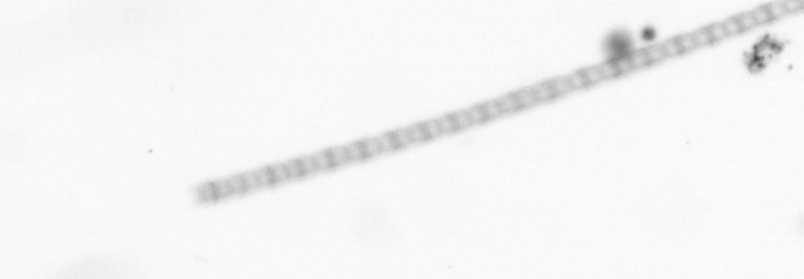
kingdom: Chromista
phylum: Ochrophyta
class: Bacillariophyceae
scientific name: Bacillariophyceae
